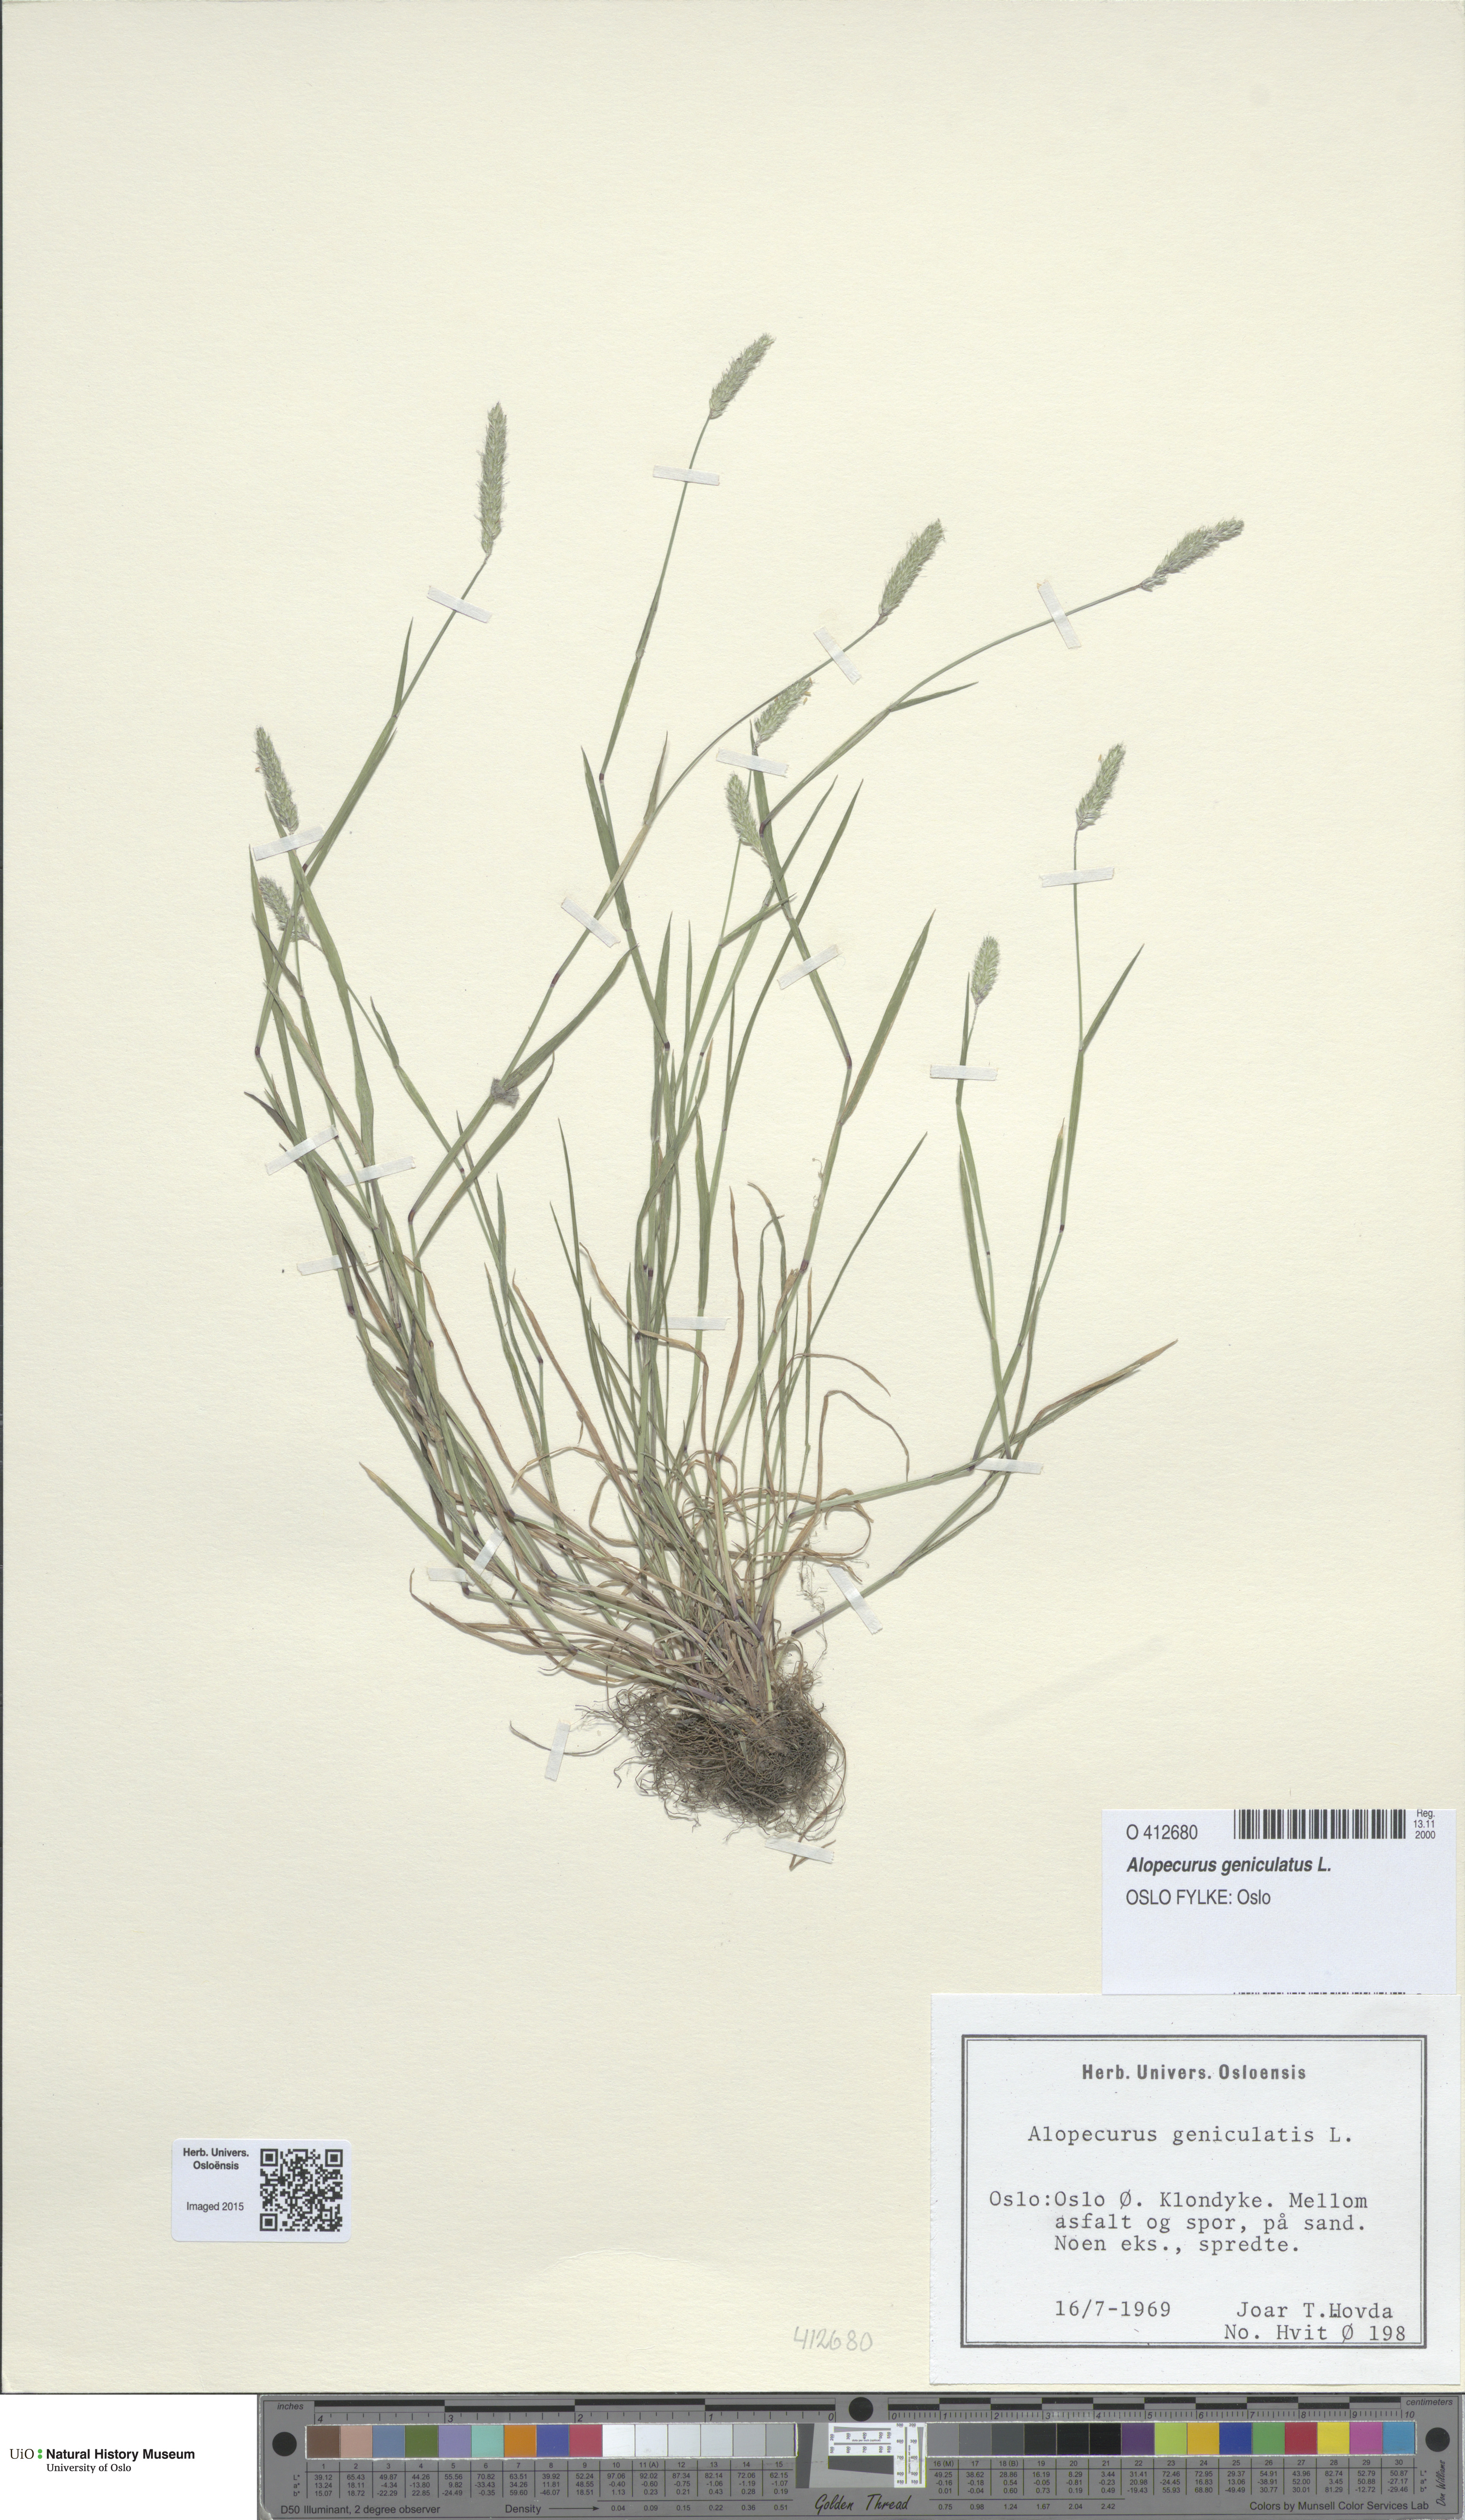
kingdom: Plantae
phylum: Tracheophyta
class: Liliopsida
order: Poales
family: Poaceae
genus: Alopecurus
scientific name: Alopecurus geniculatus
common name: Water foxtail
